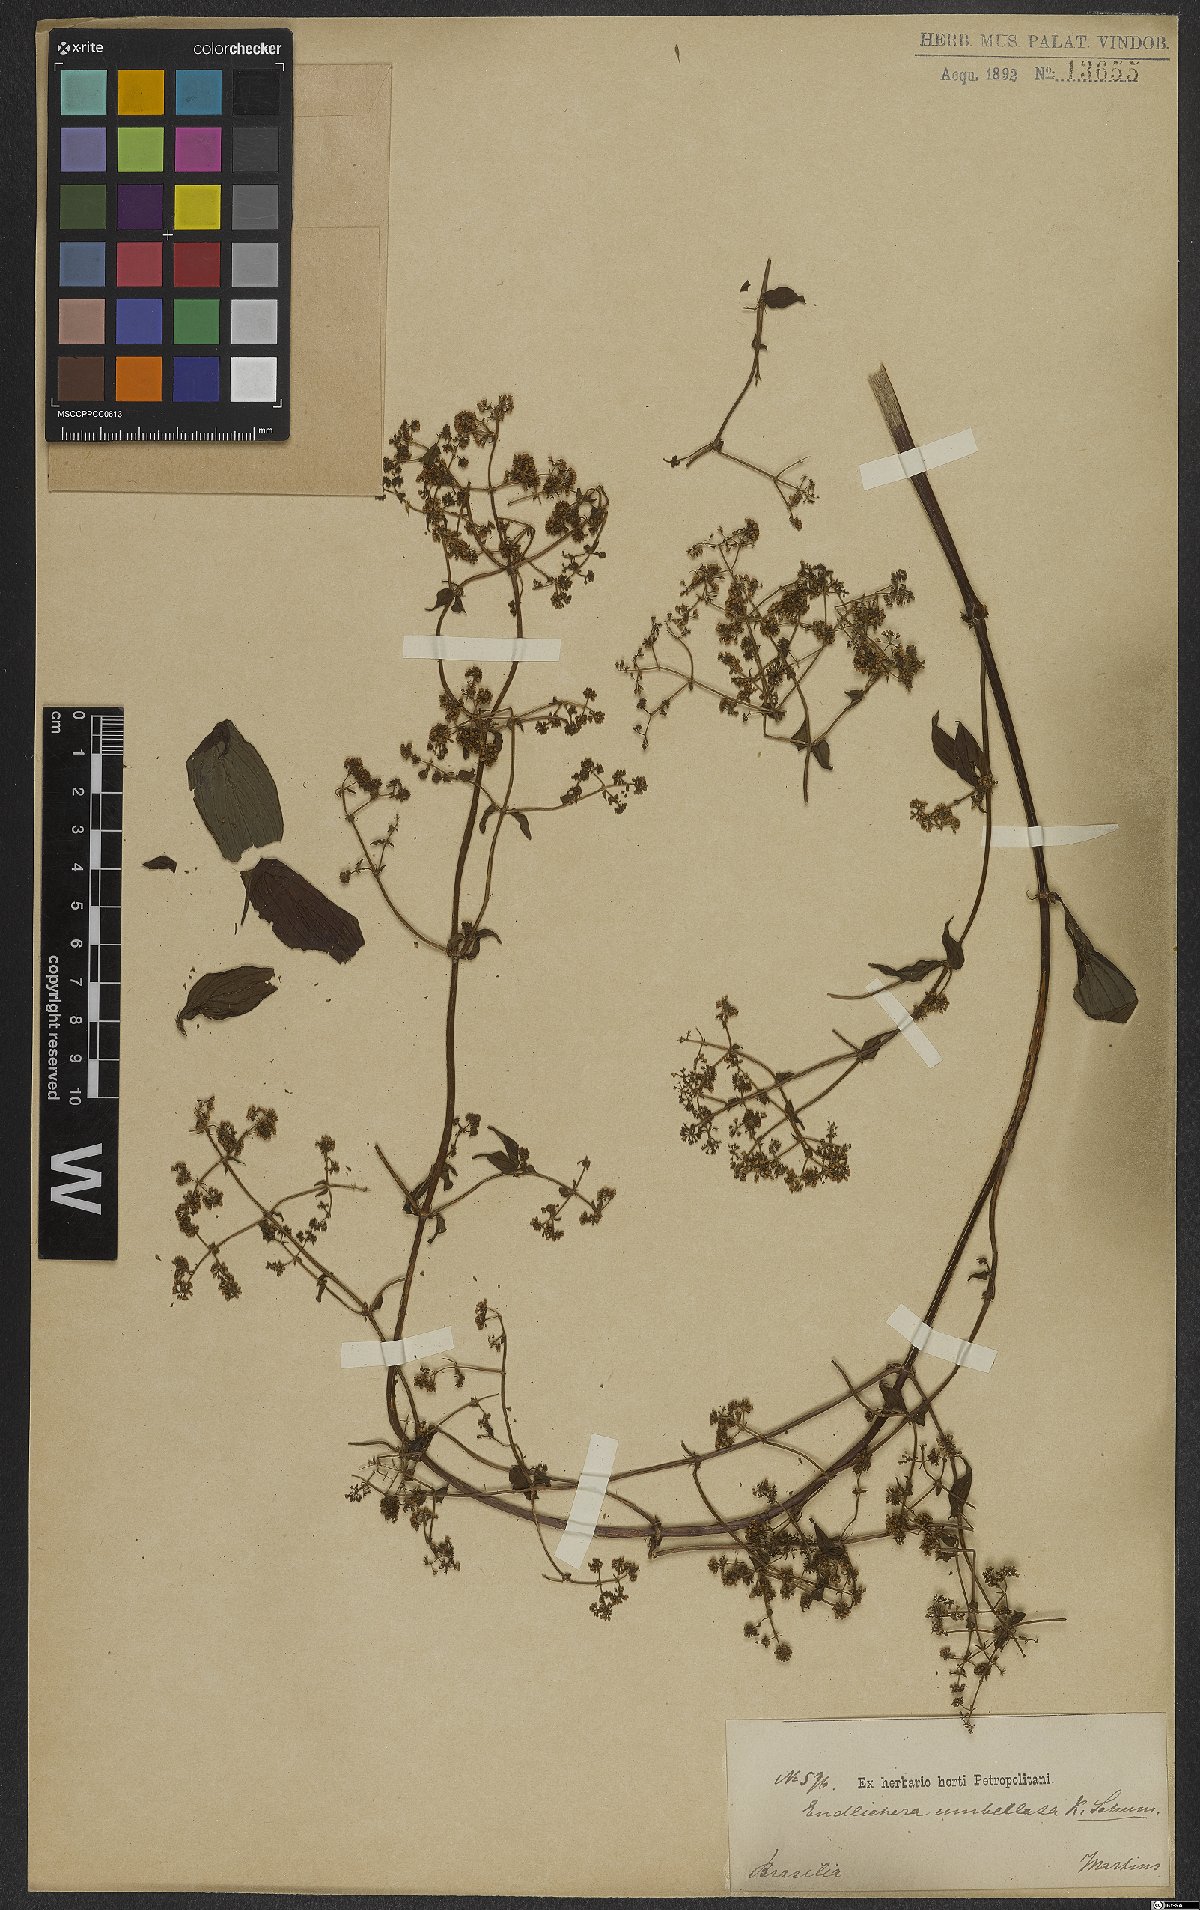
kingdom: Plantae
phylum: Tracheophyta
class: Magnoliopsida
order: Gentianales
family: Rubiaceae
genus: Emmeorhiza
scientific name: Emmeorhiza umbellata
